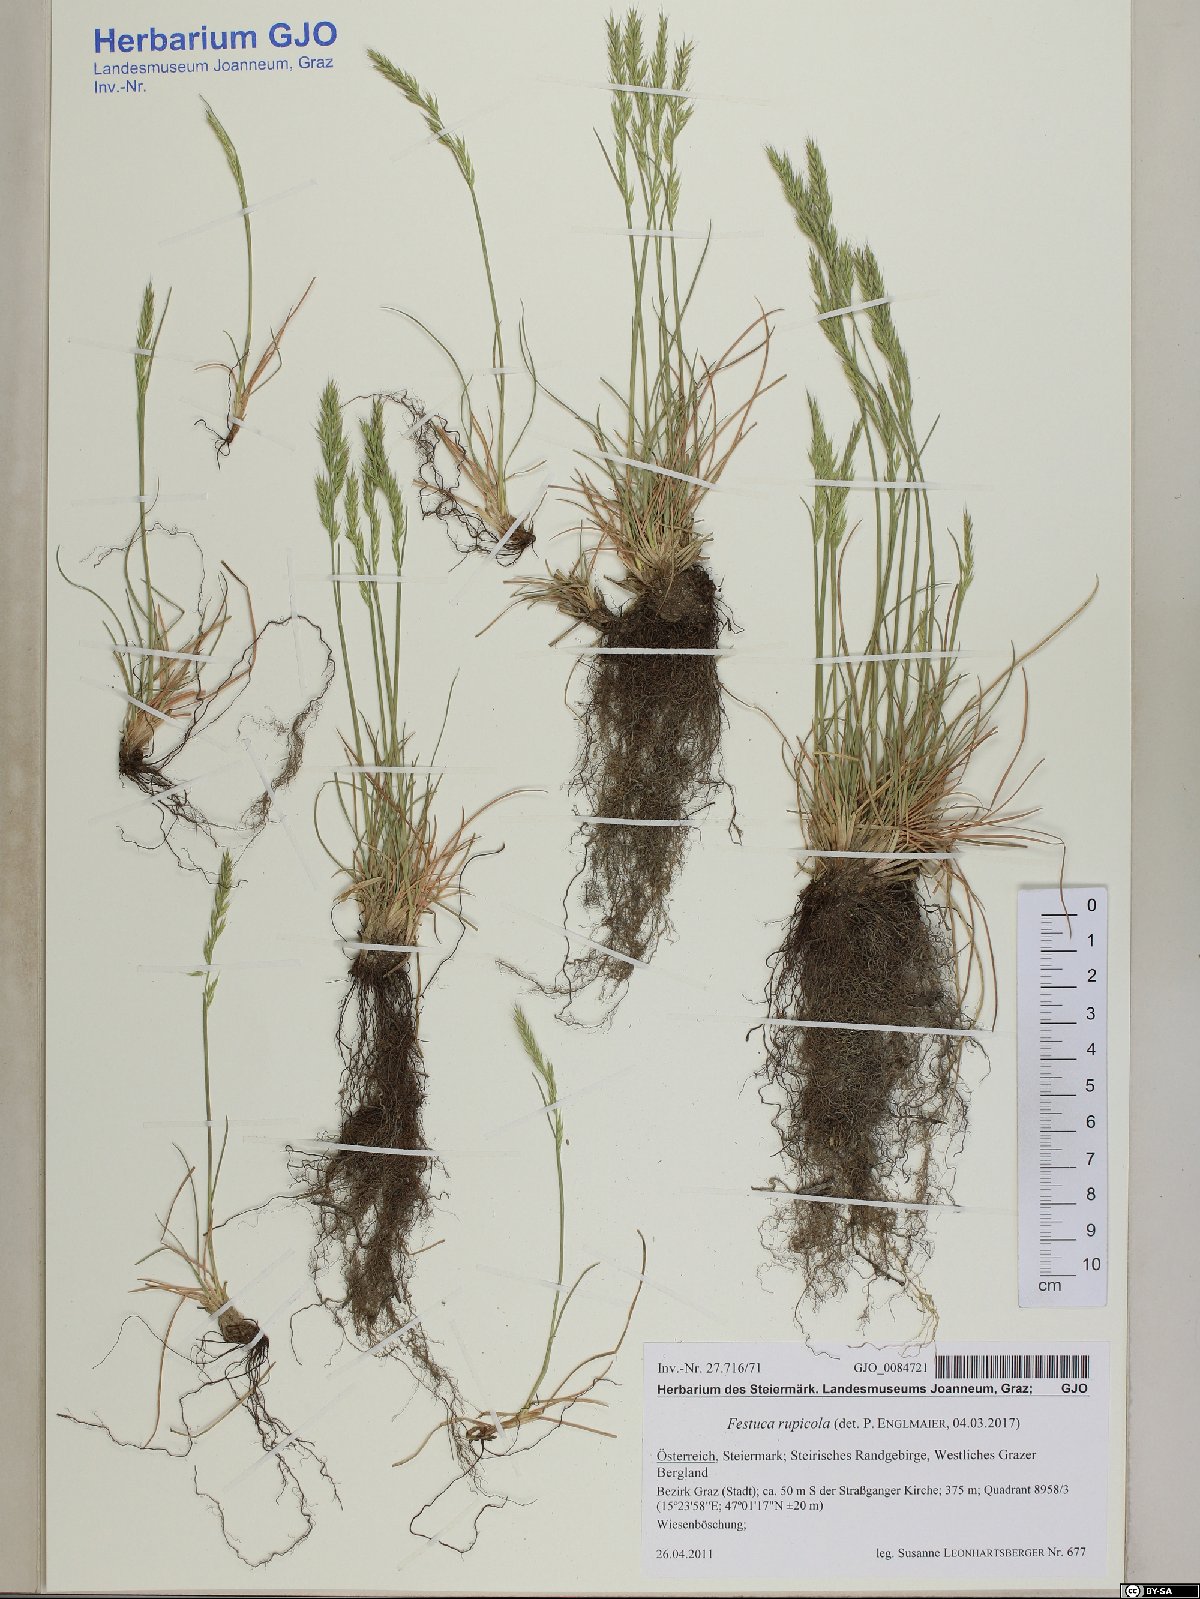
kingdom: Plantae
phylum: Tracheophyta
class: Liliopsida
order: Poales
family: Poaceae
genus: Festuca
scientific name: Festuca rupicola
